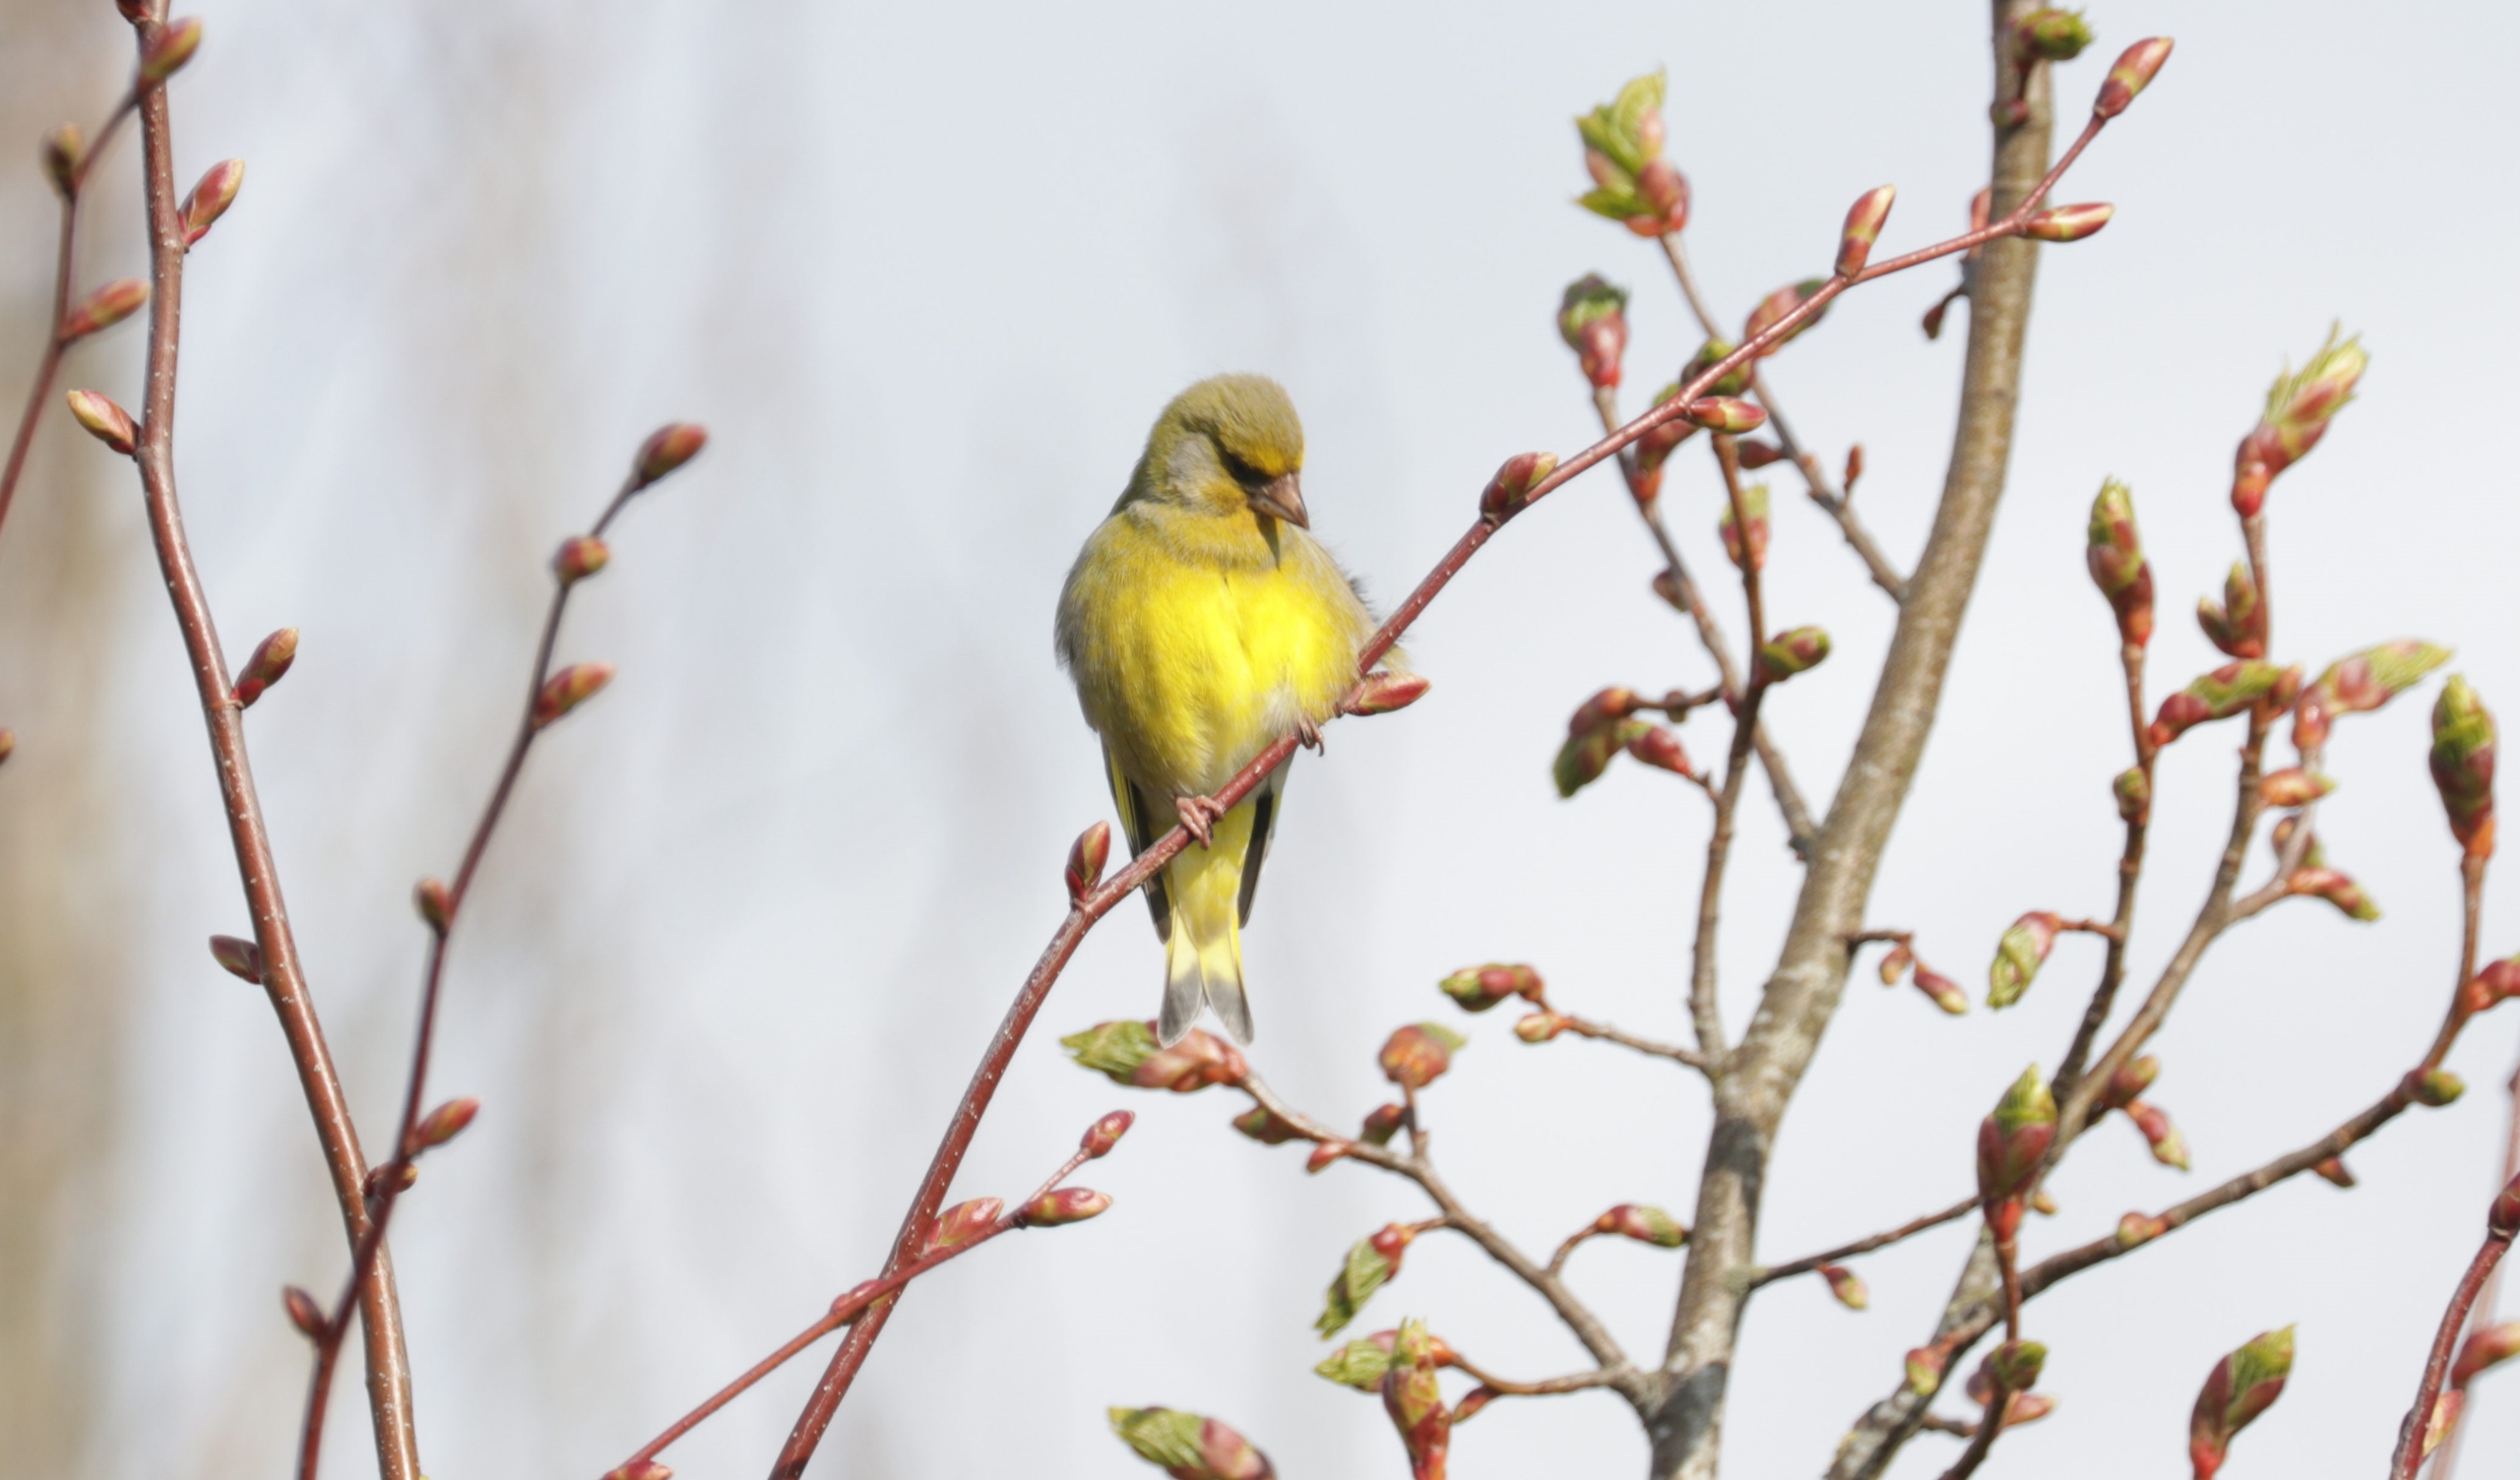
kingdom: Plantae
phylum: Tracheophyta
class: Liliopsida
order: Poales
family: Poaceae
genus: Chloris
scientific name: Chloris chloris
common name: Grønirisk
